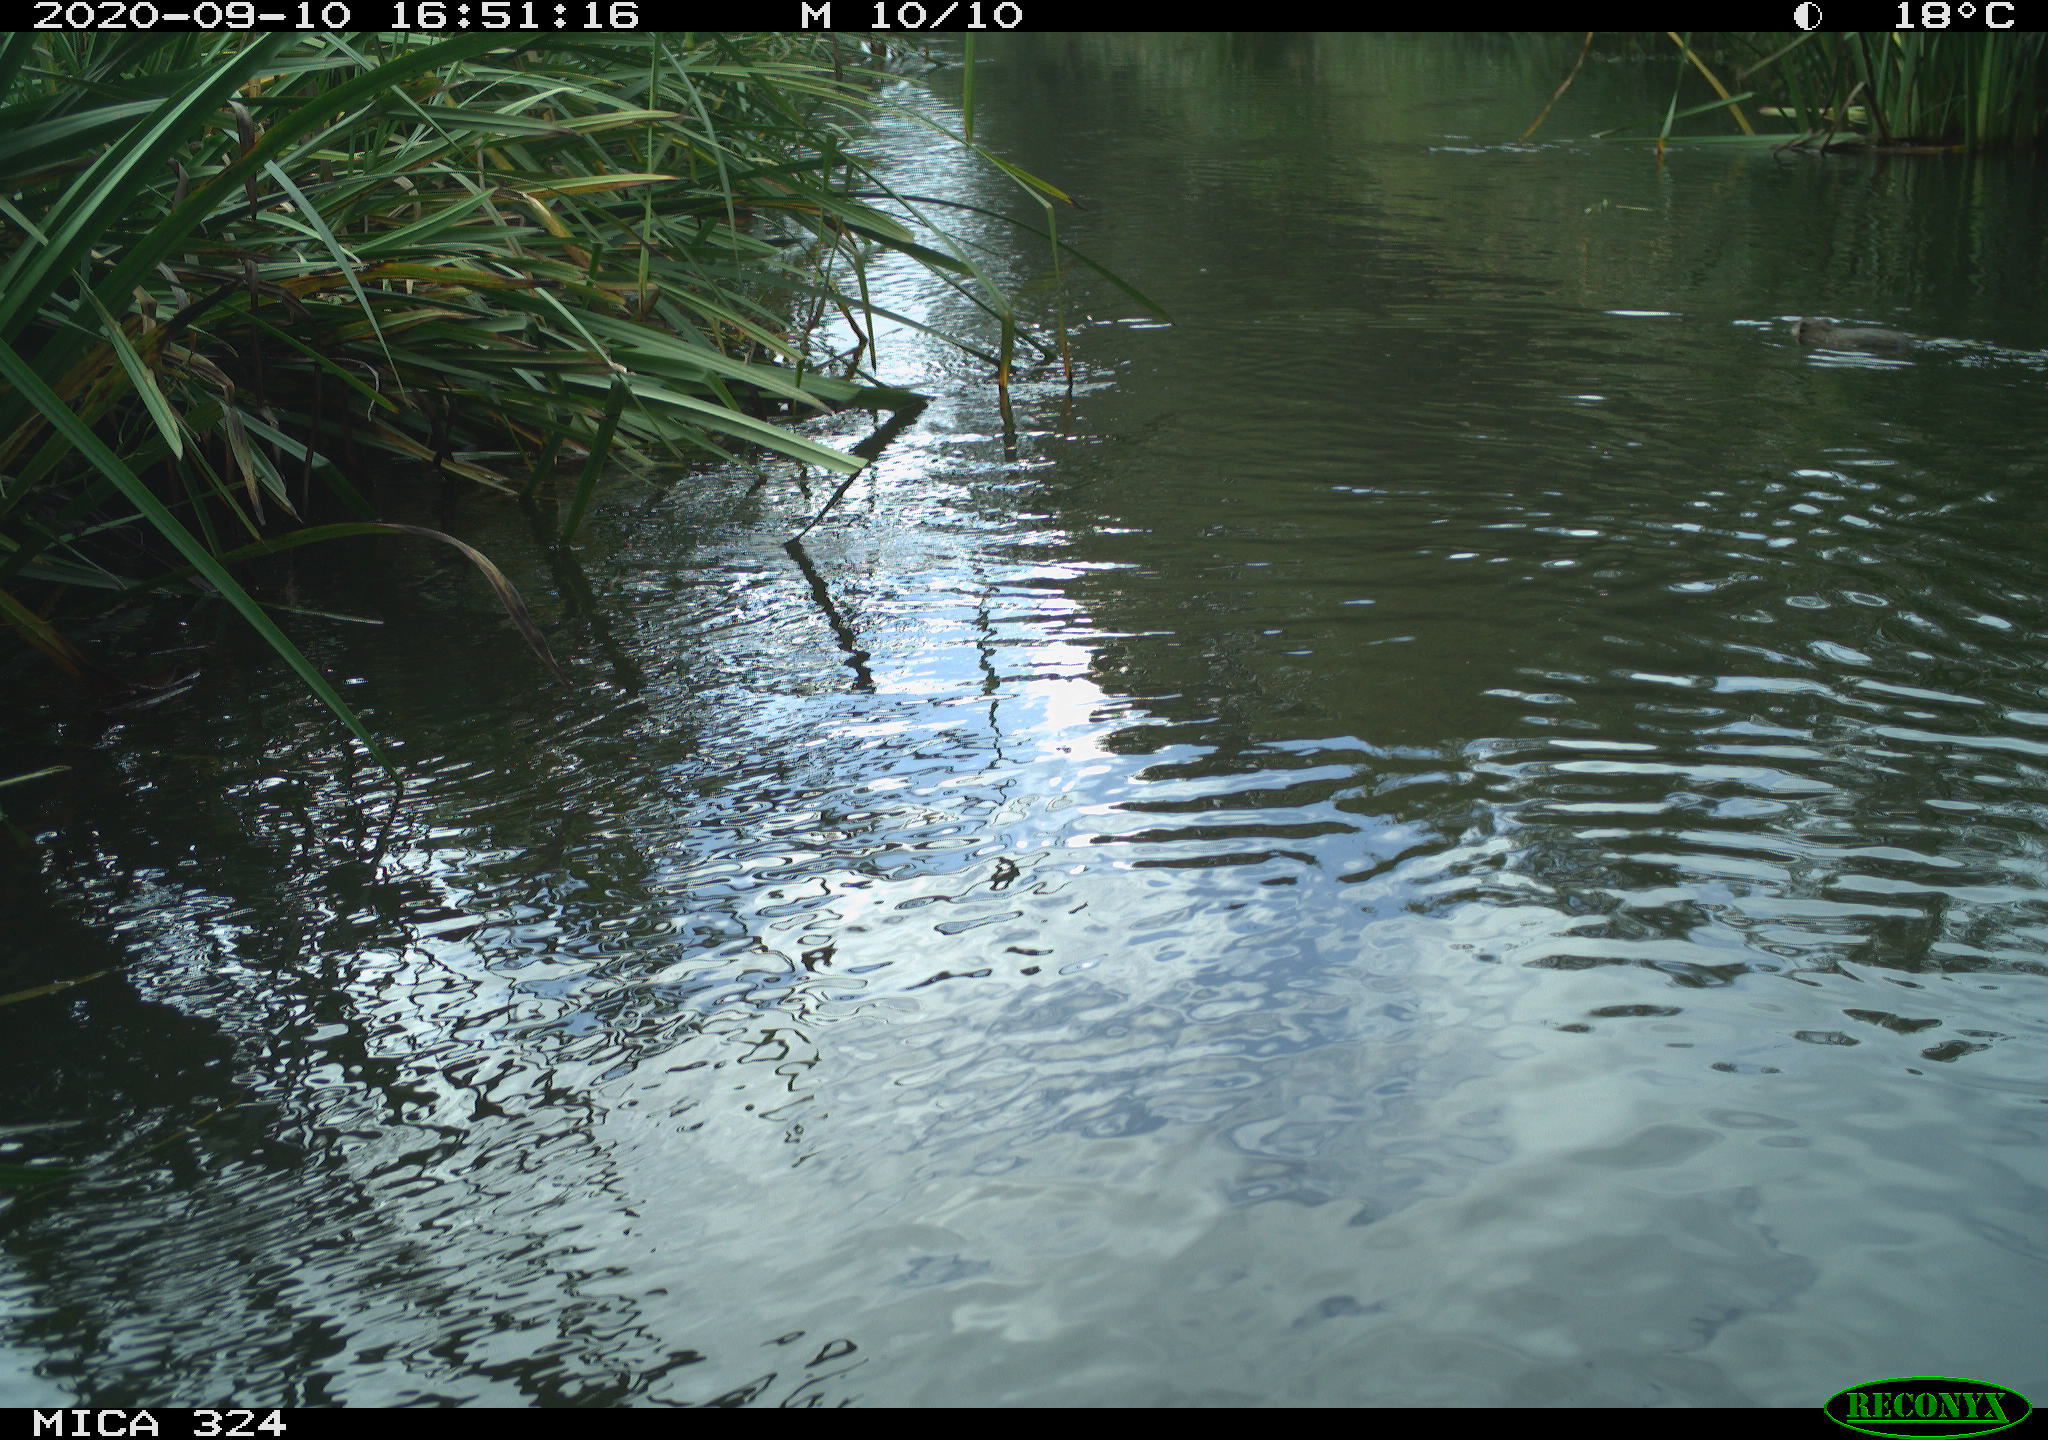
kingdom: Animalia
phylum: Chordata
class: Mammalia
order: Rodentia
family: Cricetidae
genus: Ondatra
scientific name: Ondatra zibethicus
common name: Muskrat
